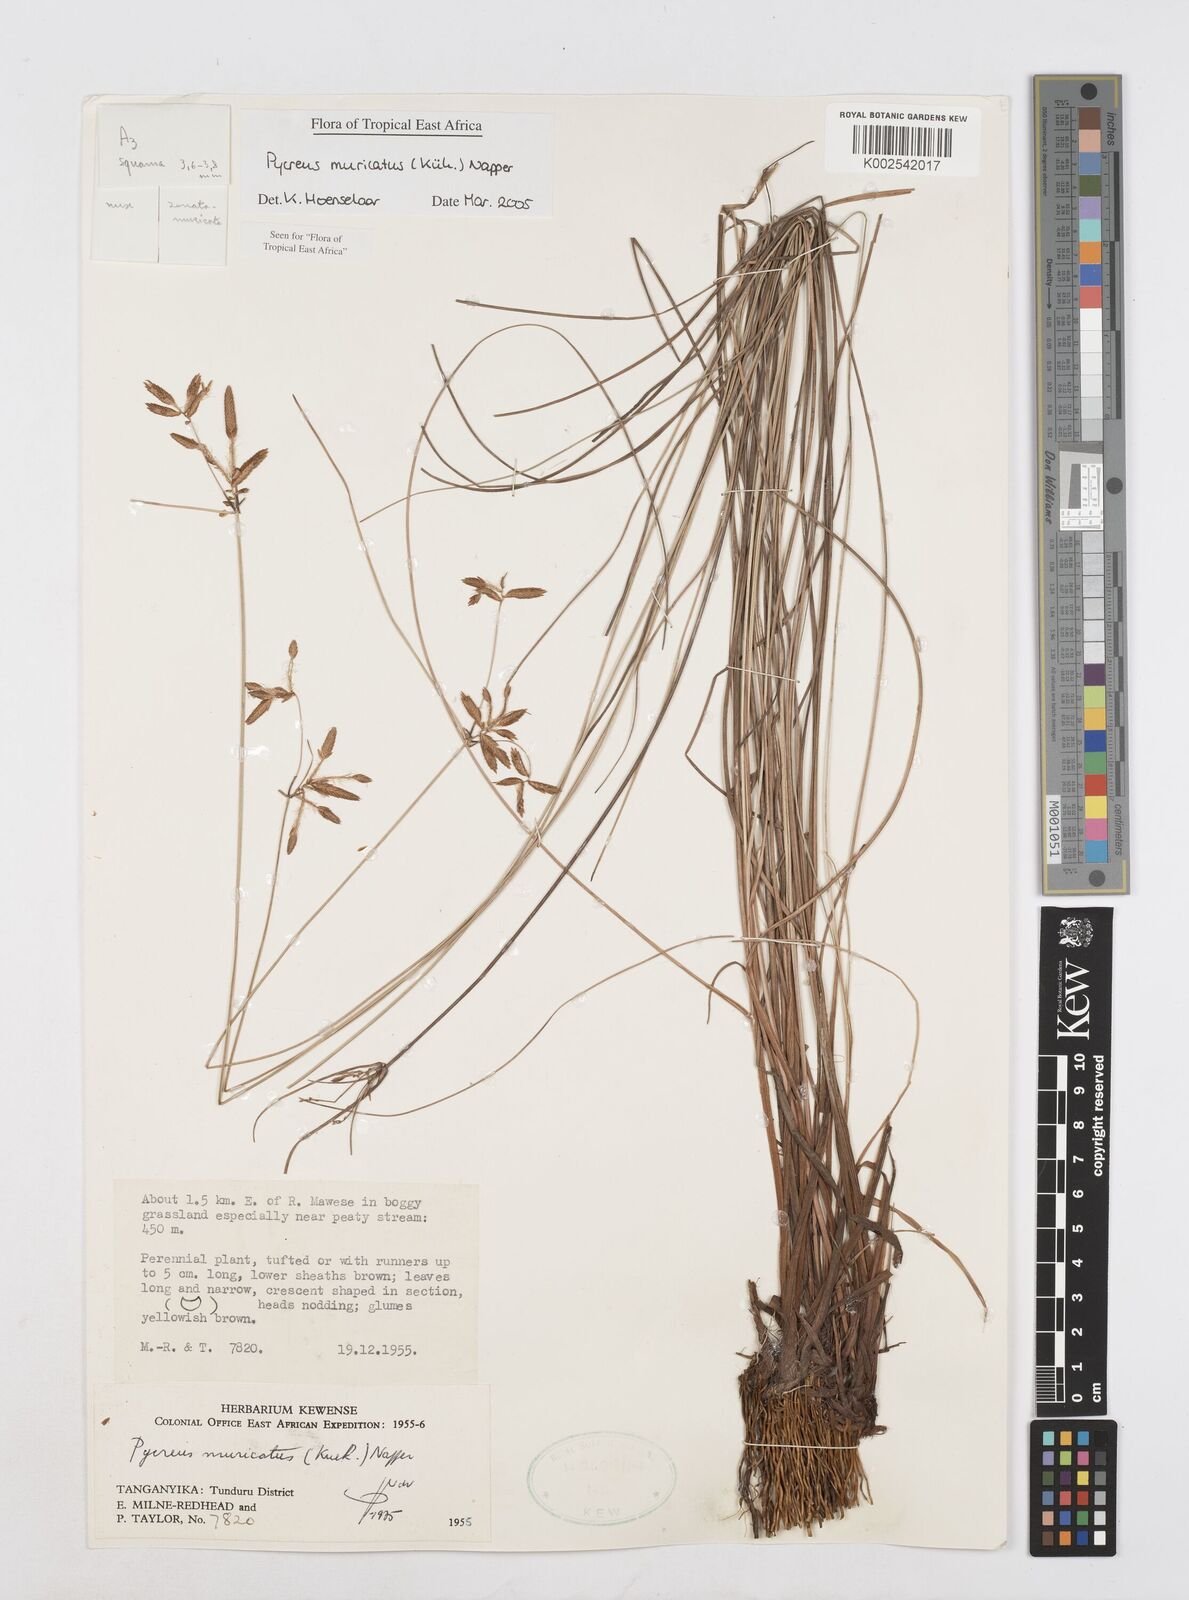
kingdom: Plantae
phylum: Tracheophyta
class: Liliopsida
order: Poales
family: Cyperaceae
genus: Cyperus
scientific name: Cyperus nigricans
